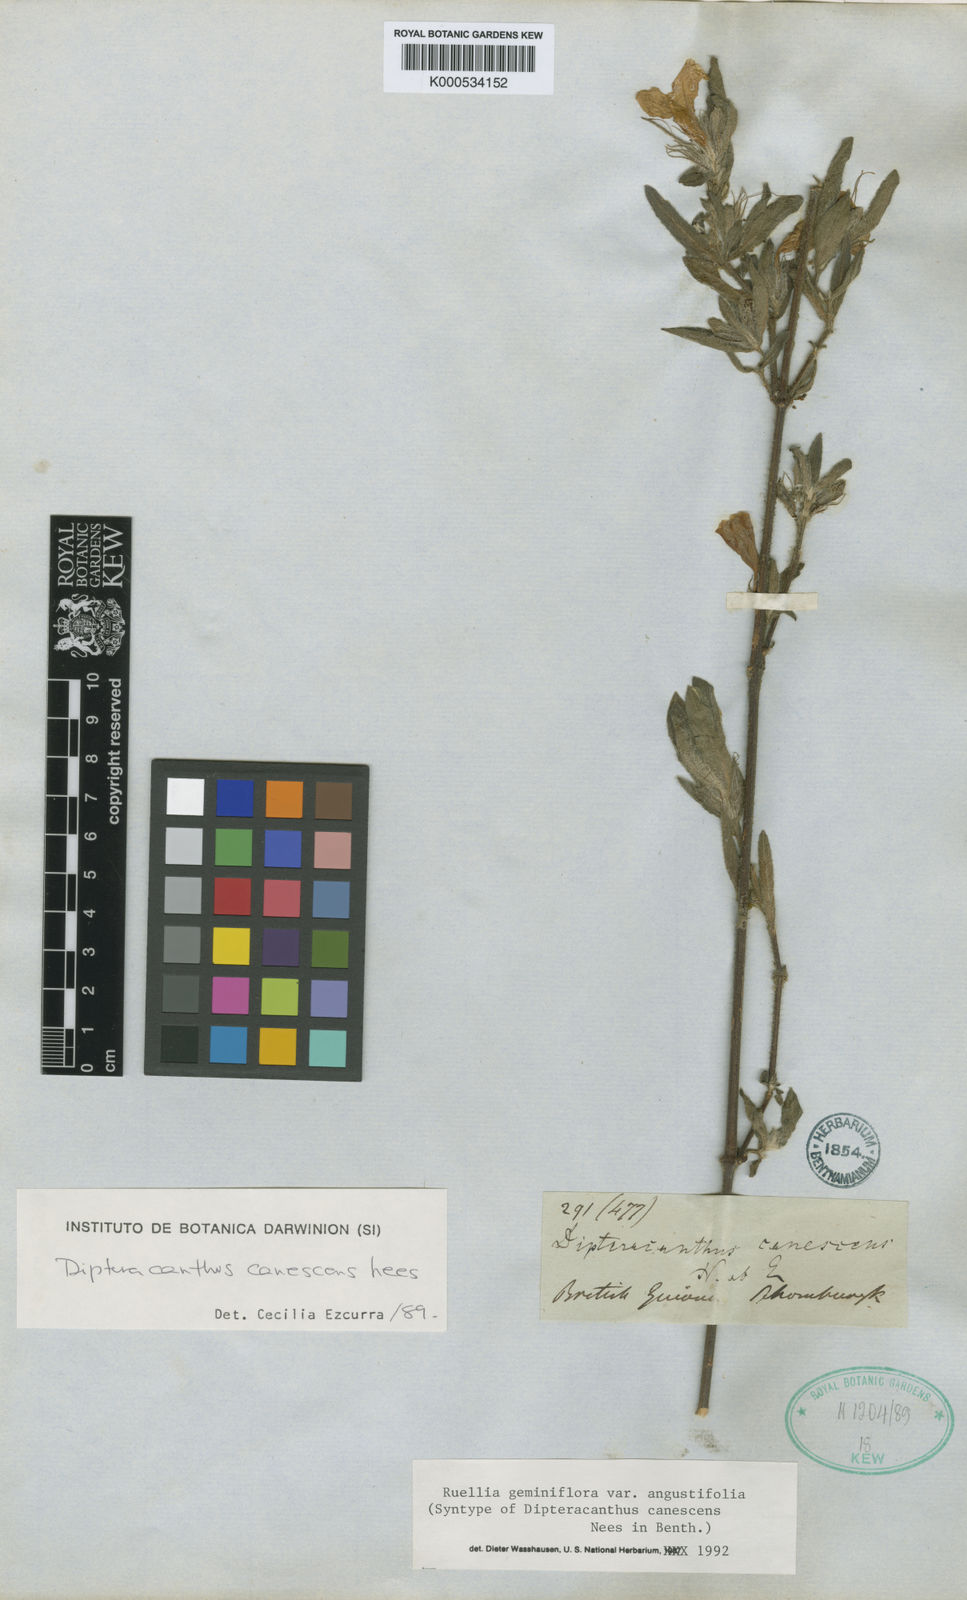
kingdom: Plantae
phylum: Tracheophyta
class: Magnoliopsida
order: Lamiales
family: Acanthaceae
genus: Ruellia
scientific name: Ruellia geminiflora
